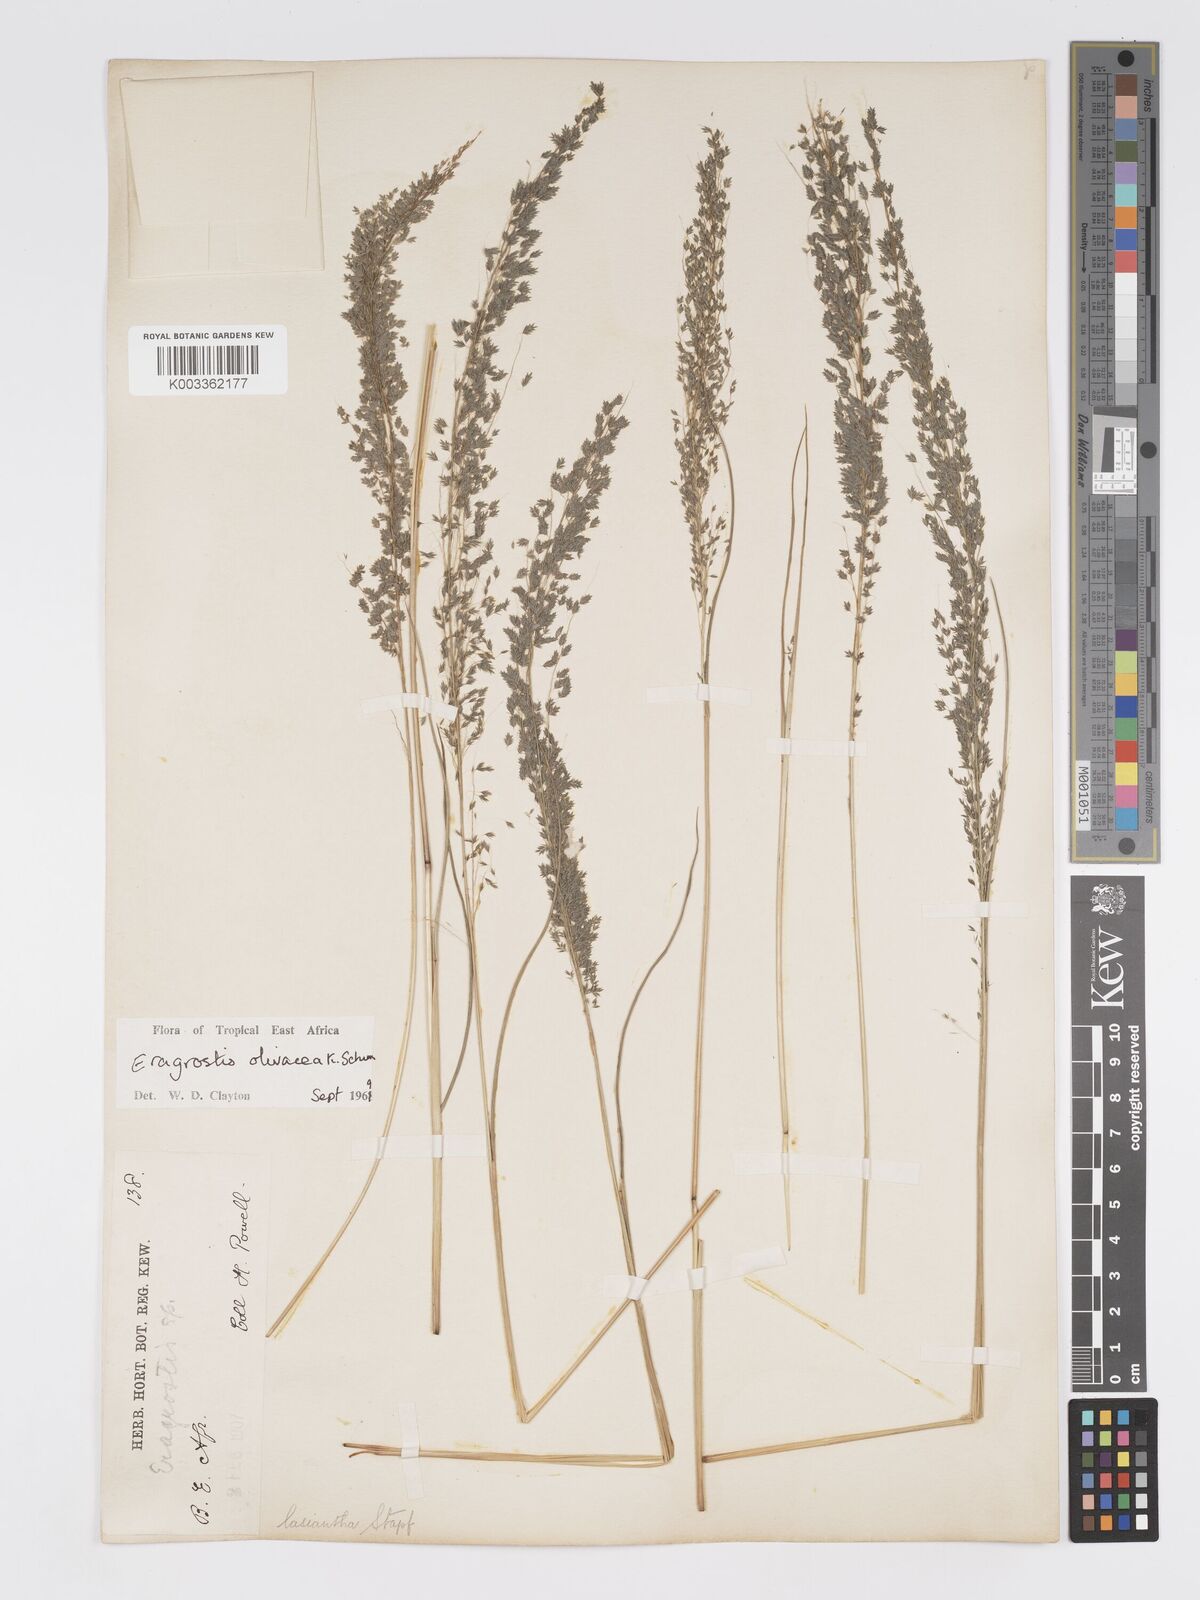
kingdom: Plantae
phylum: Tracheophyta
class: Liliopsida
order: Poales
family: Poaceae
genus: Eragrostis
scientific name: Eragrostis olivacea
